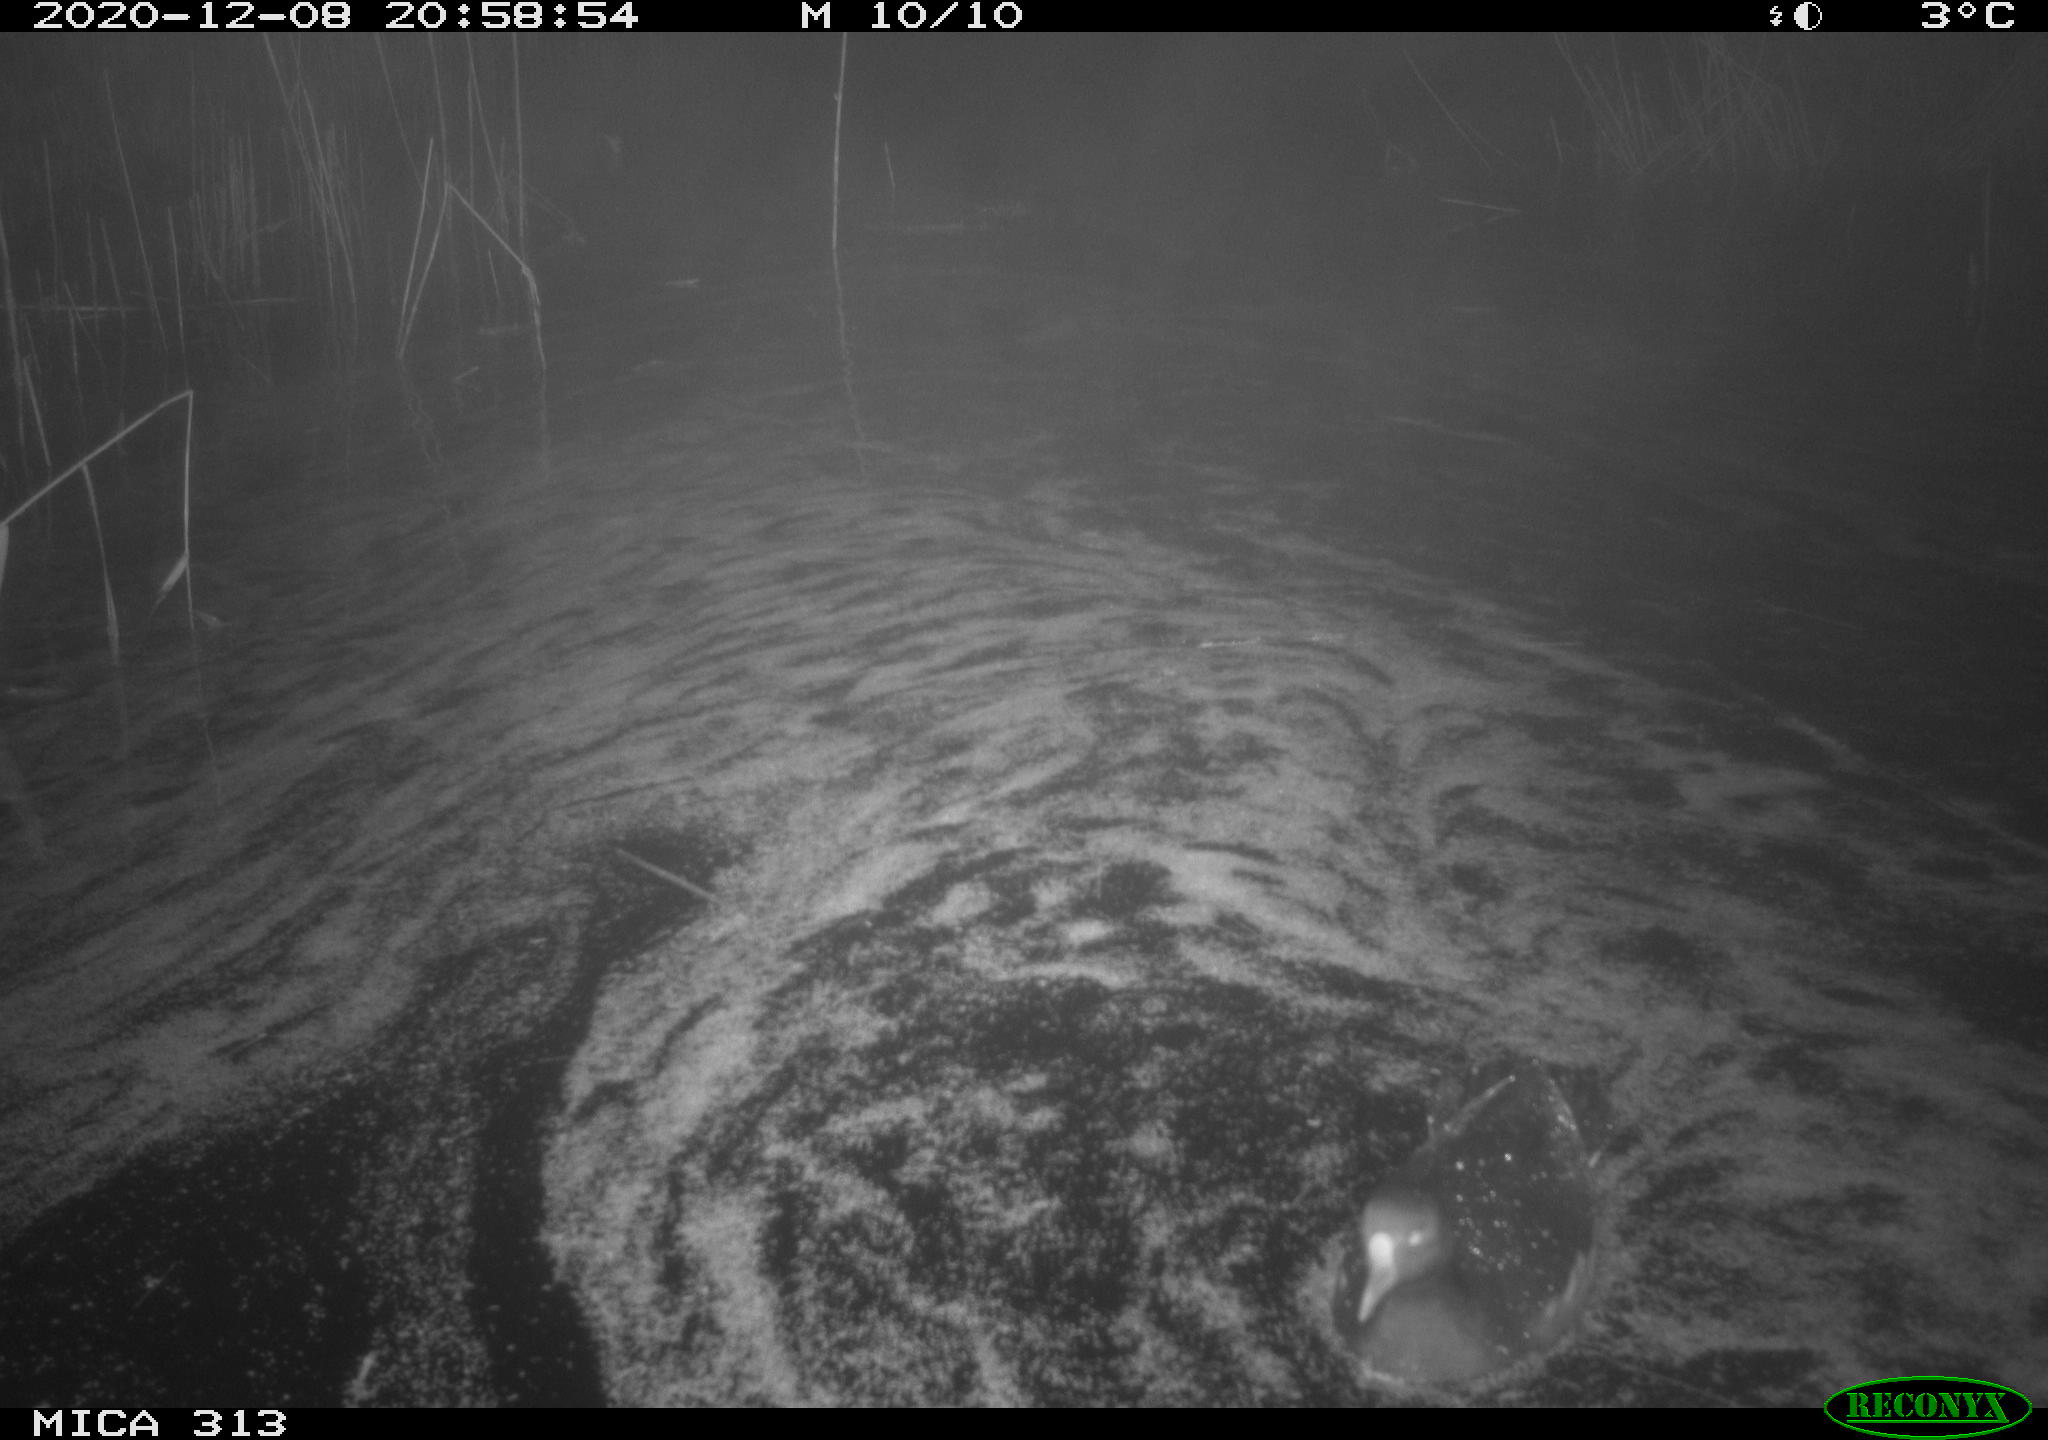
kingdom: Animalia
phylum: Chordata
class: Aves
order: Gruiformes
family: Rallidae
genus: Gallinula
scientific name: Gallinula chloropus
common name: Common moorhen
